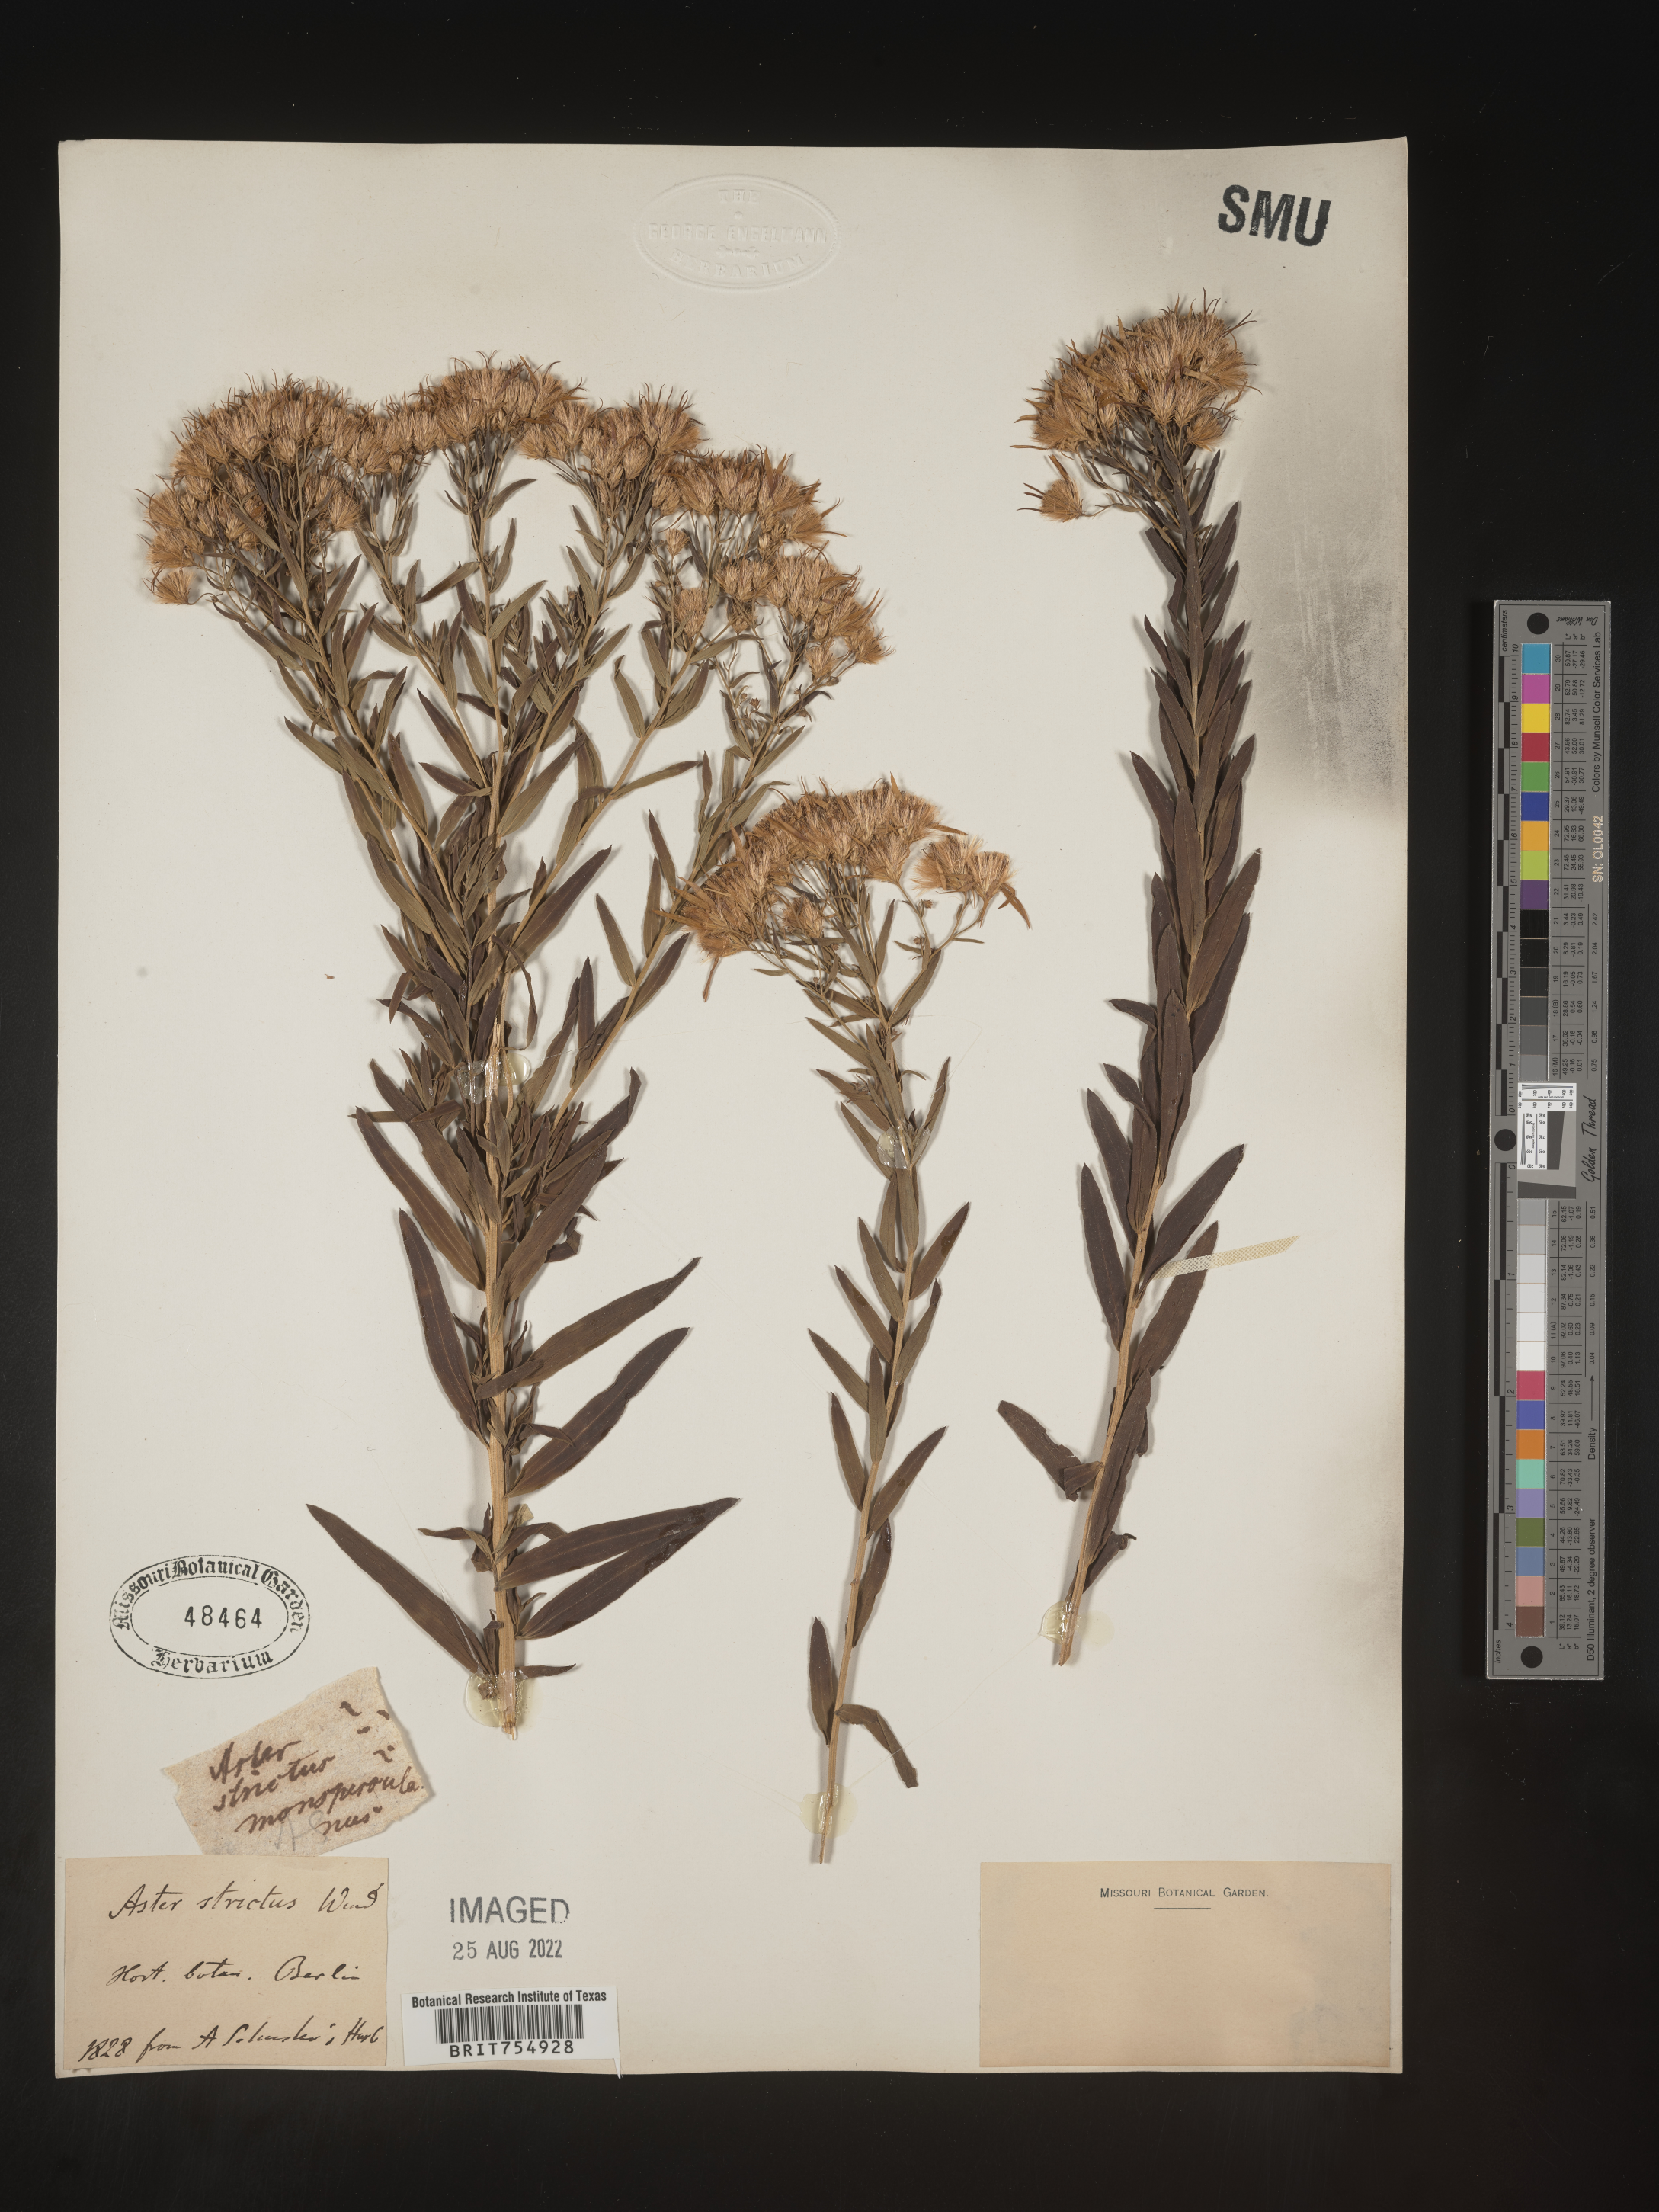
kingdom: Plantae
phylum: Tracheophyta
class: Magnoliopsida
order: Asterales
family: Asteraceae
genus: Symphyotrichum
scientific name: Symphyotrichum
